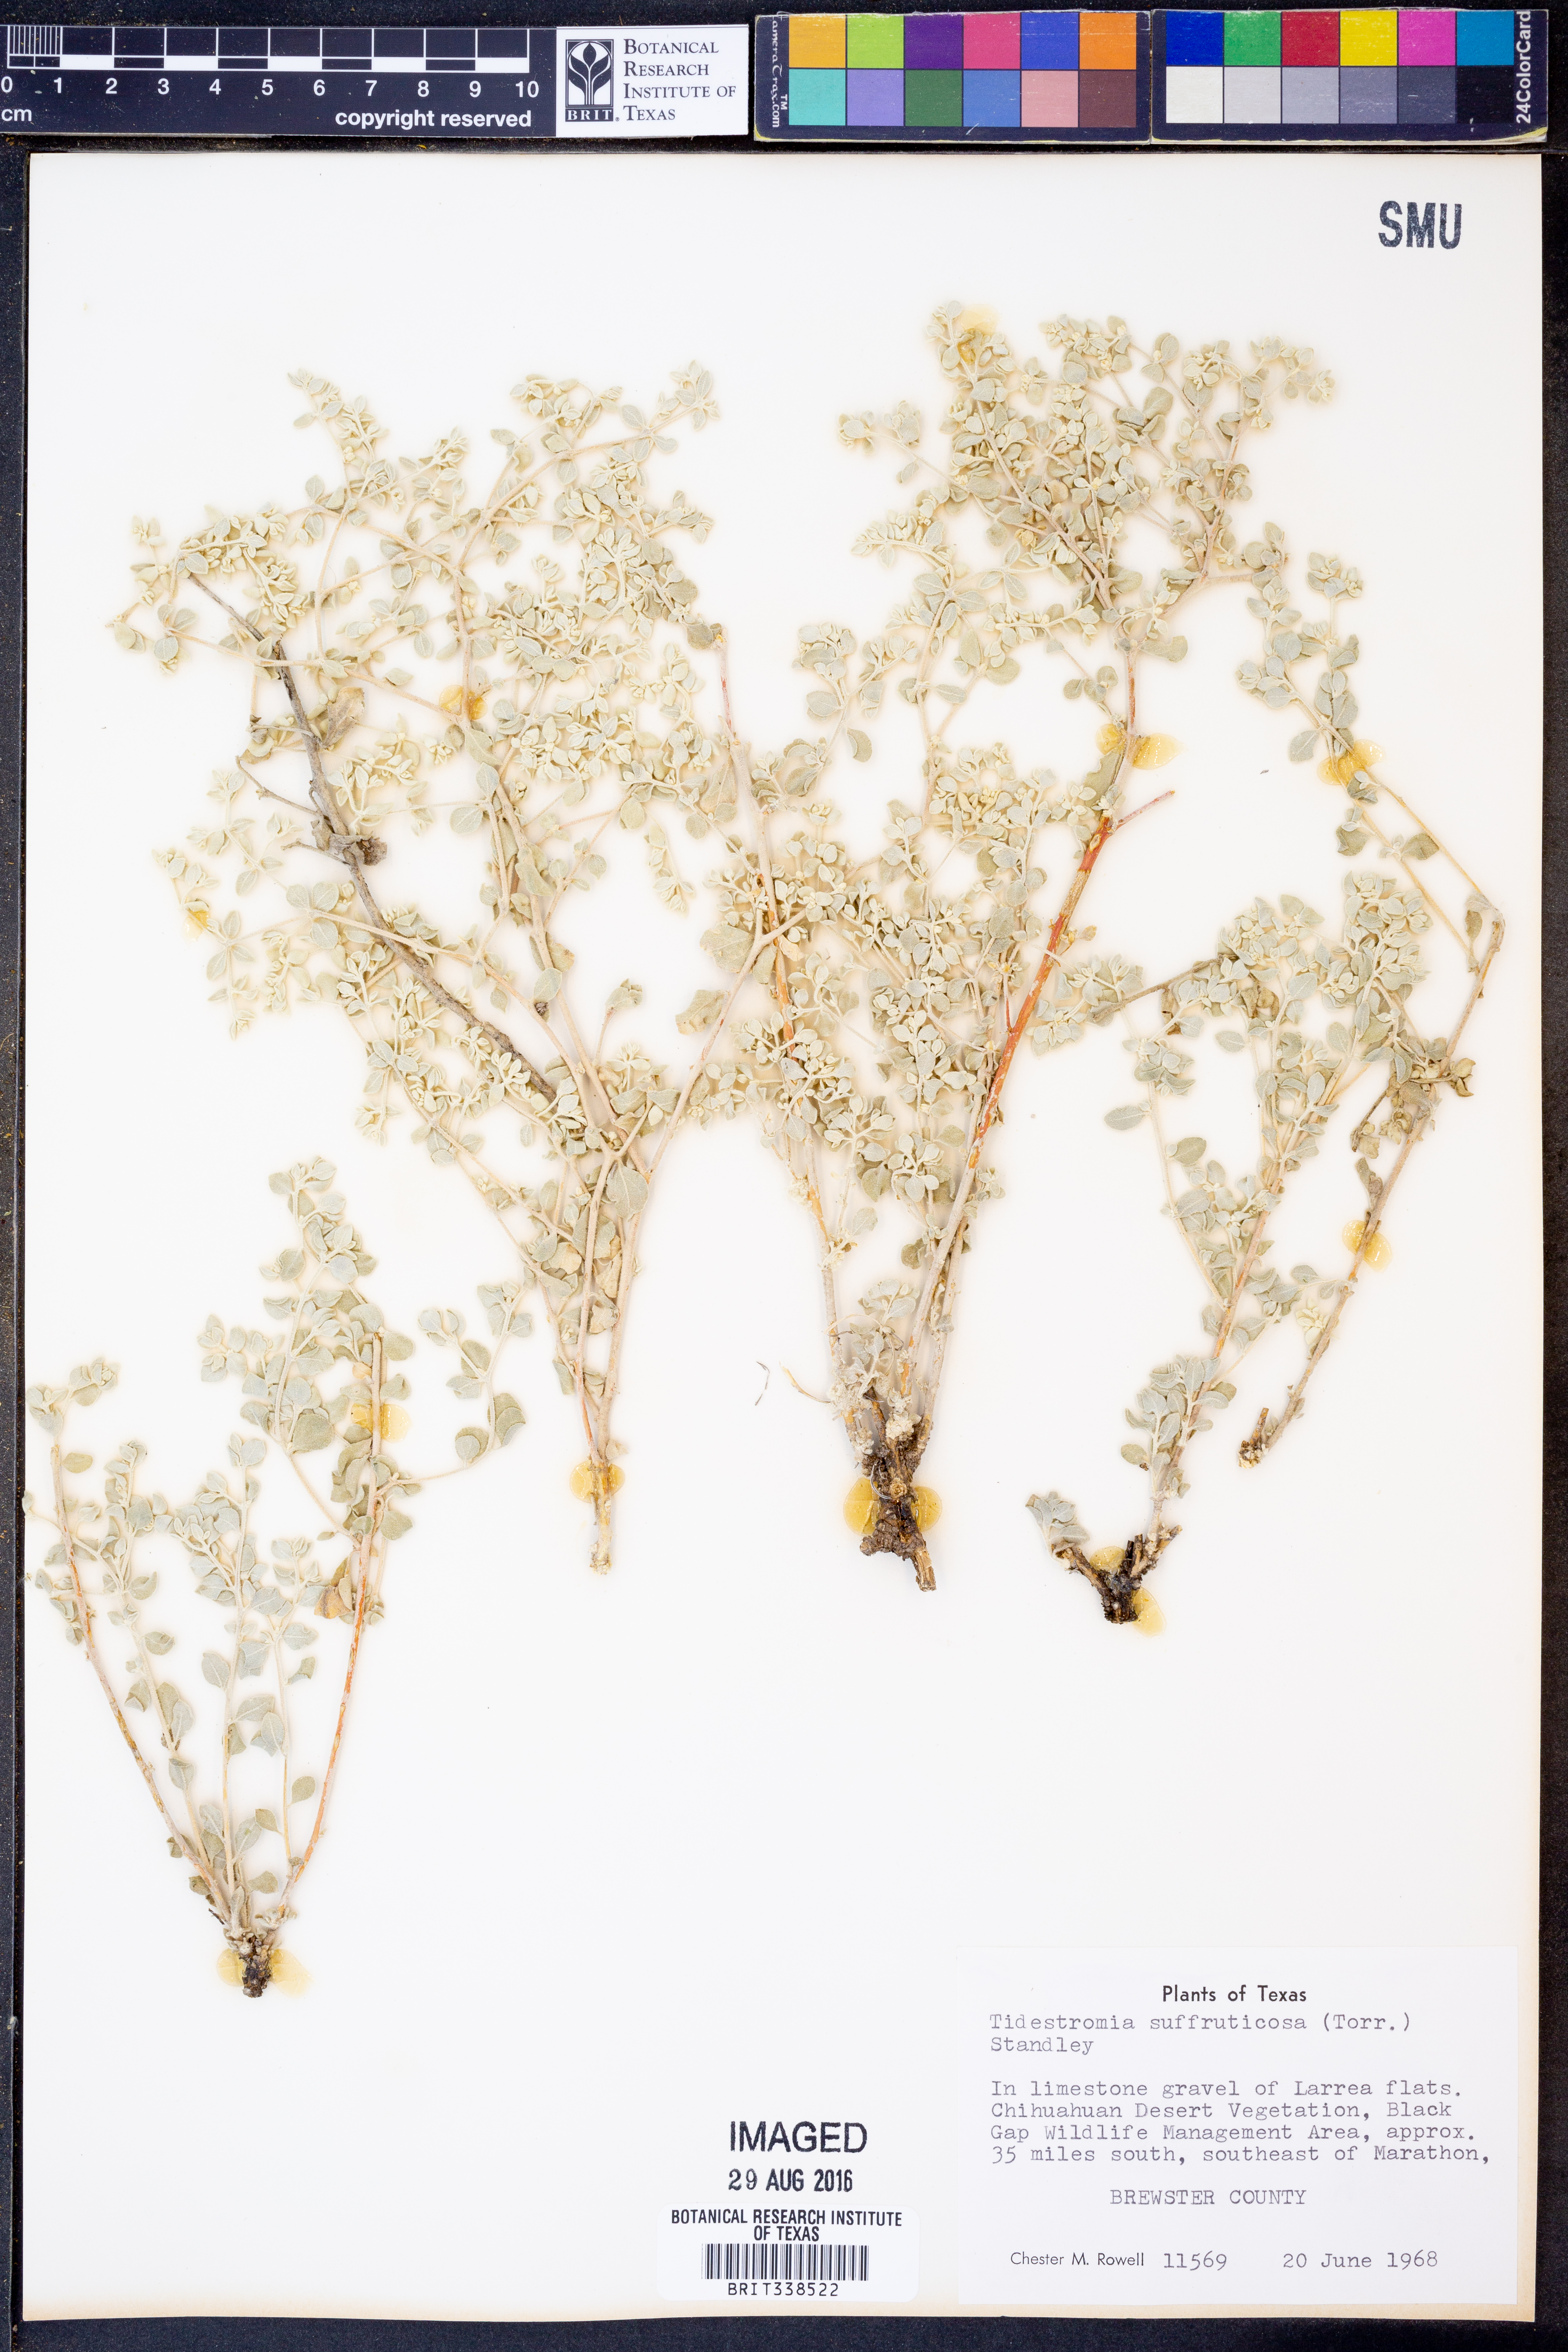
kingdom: Plantae
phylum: Tracheophyta
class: Magnoliopsida
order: Caryophyllales
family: Amaranthaceae
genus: Tidestromia
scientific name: Tidestromia suffruticosa
